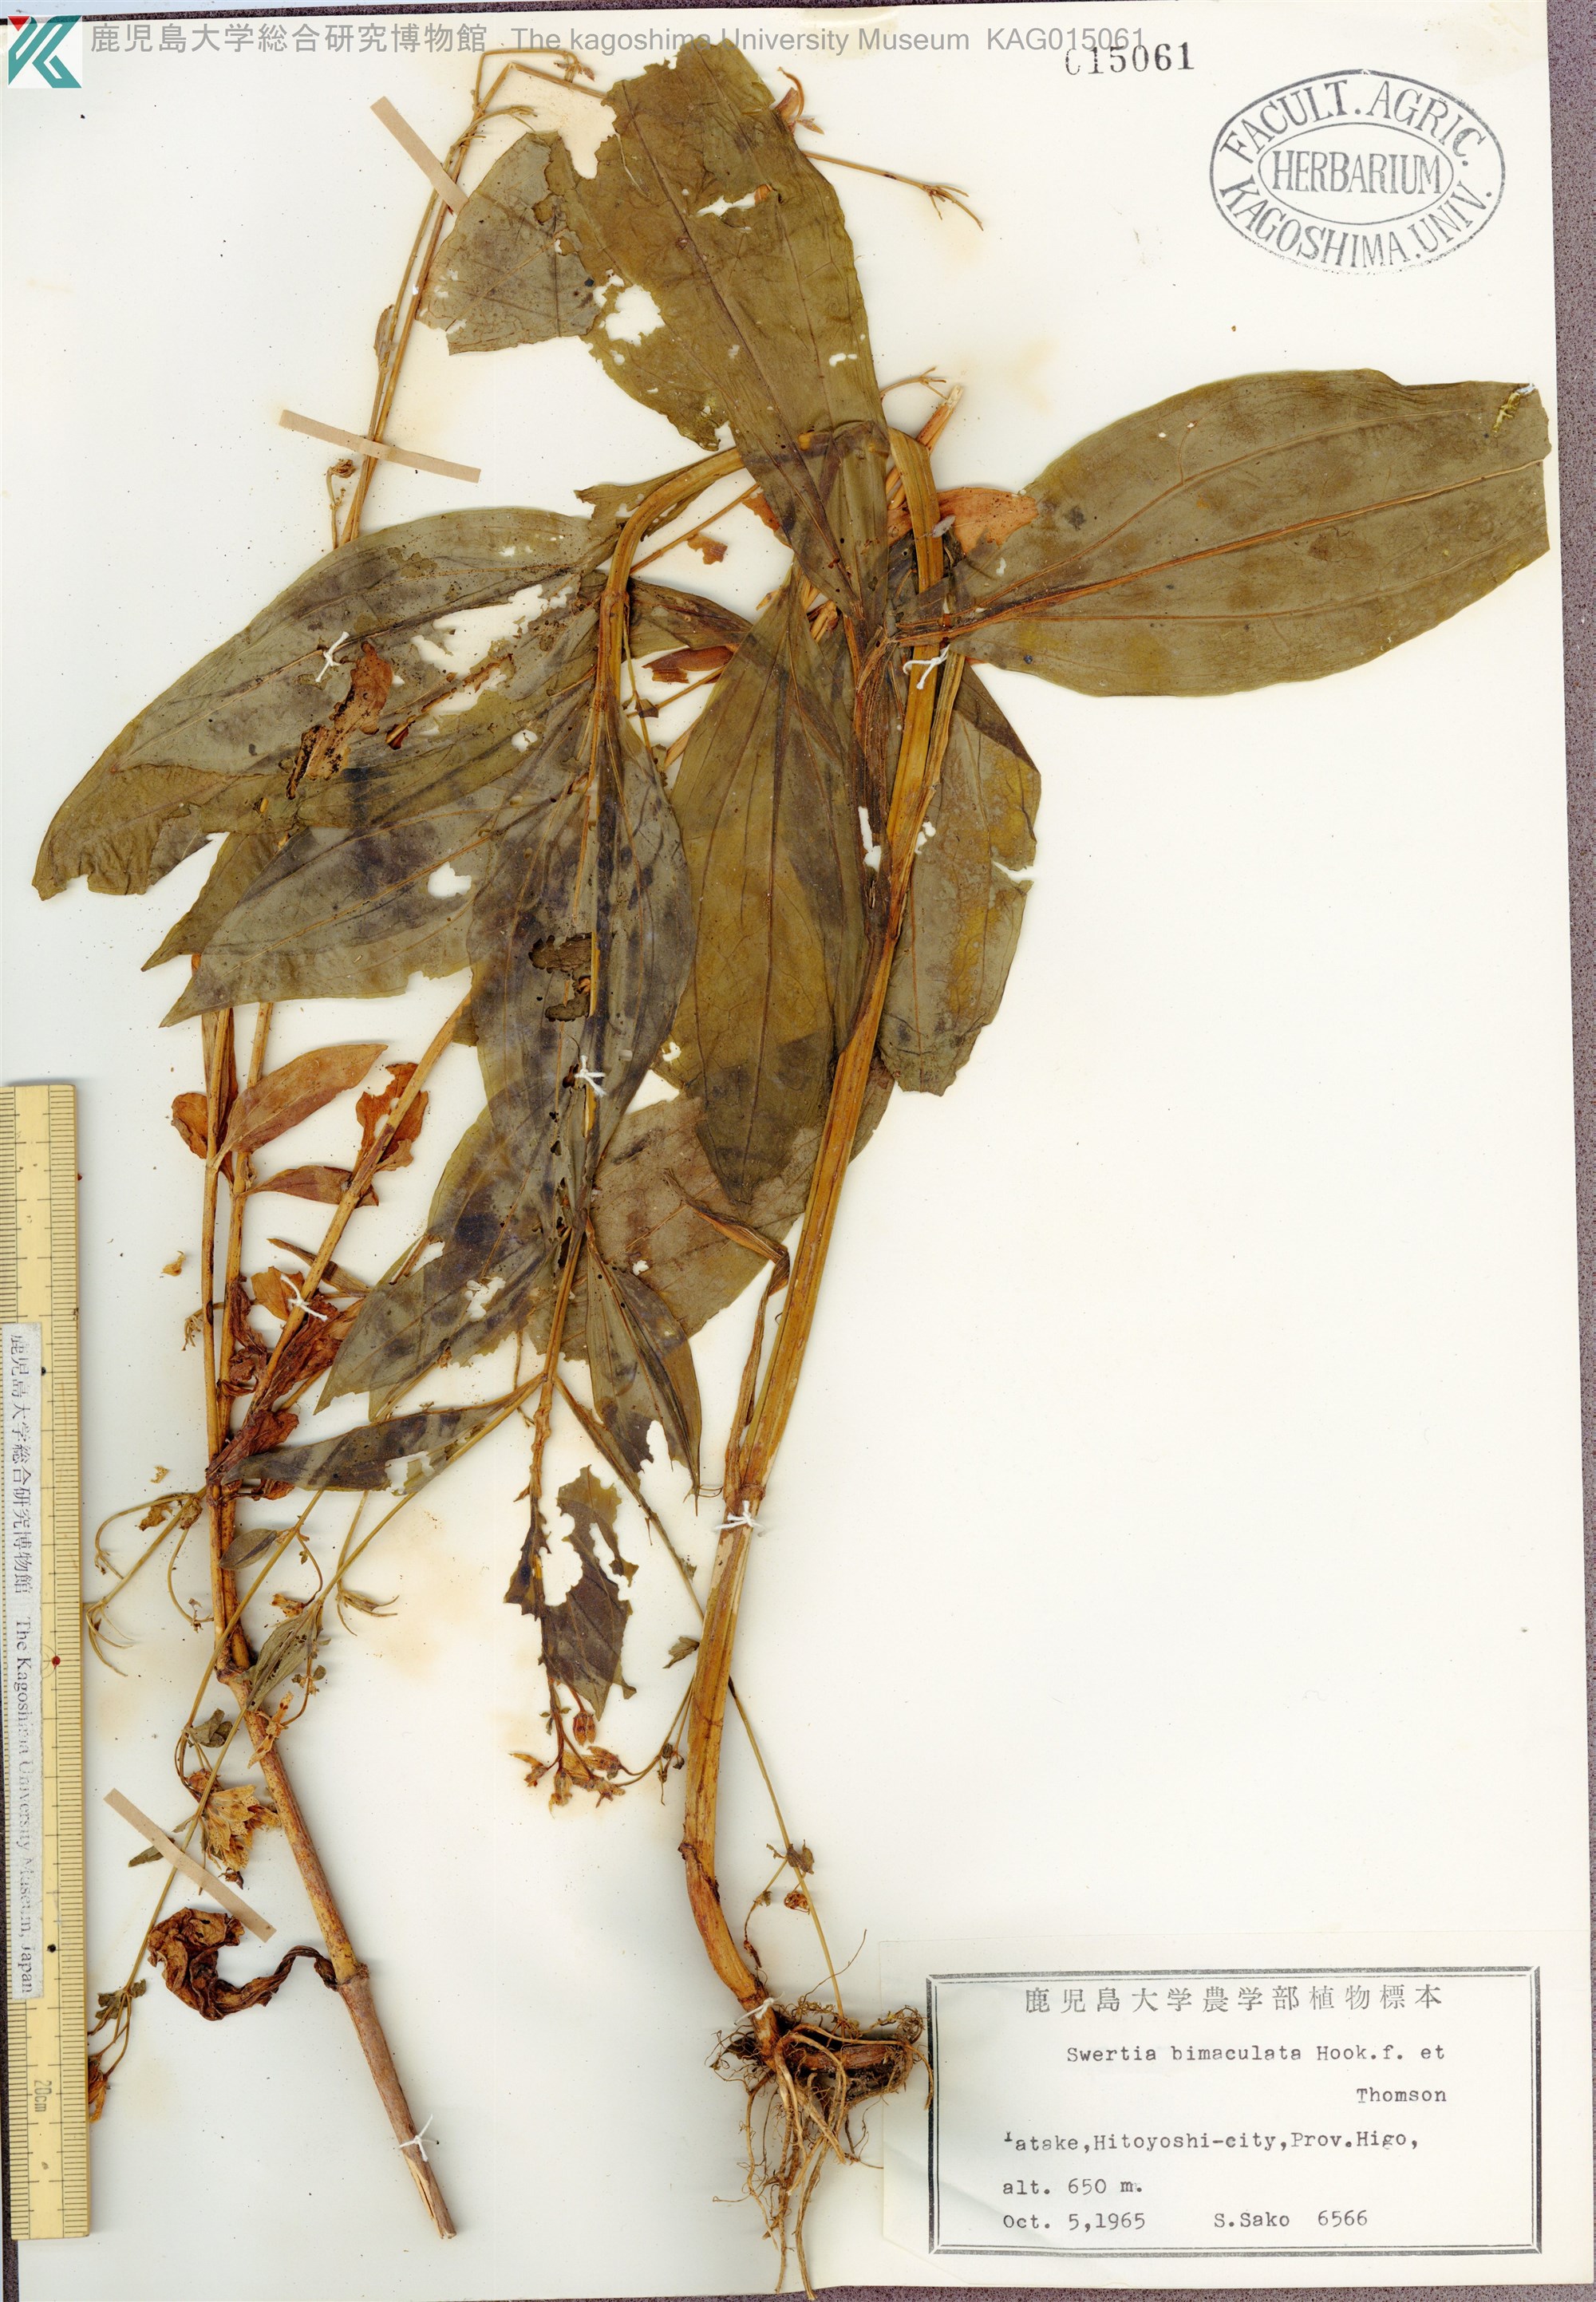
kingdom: Plantae
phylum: Tracheophyta
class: Magnoliopsida
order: Gentianales
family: Gentianaceae
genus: Swertia
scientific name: Swertia bimaculata
